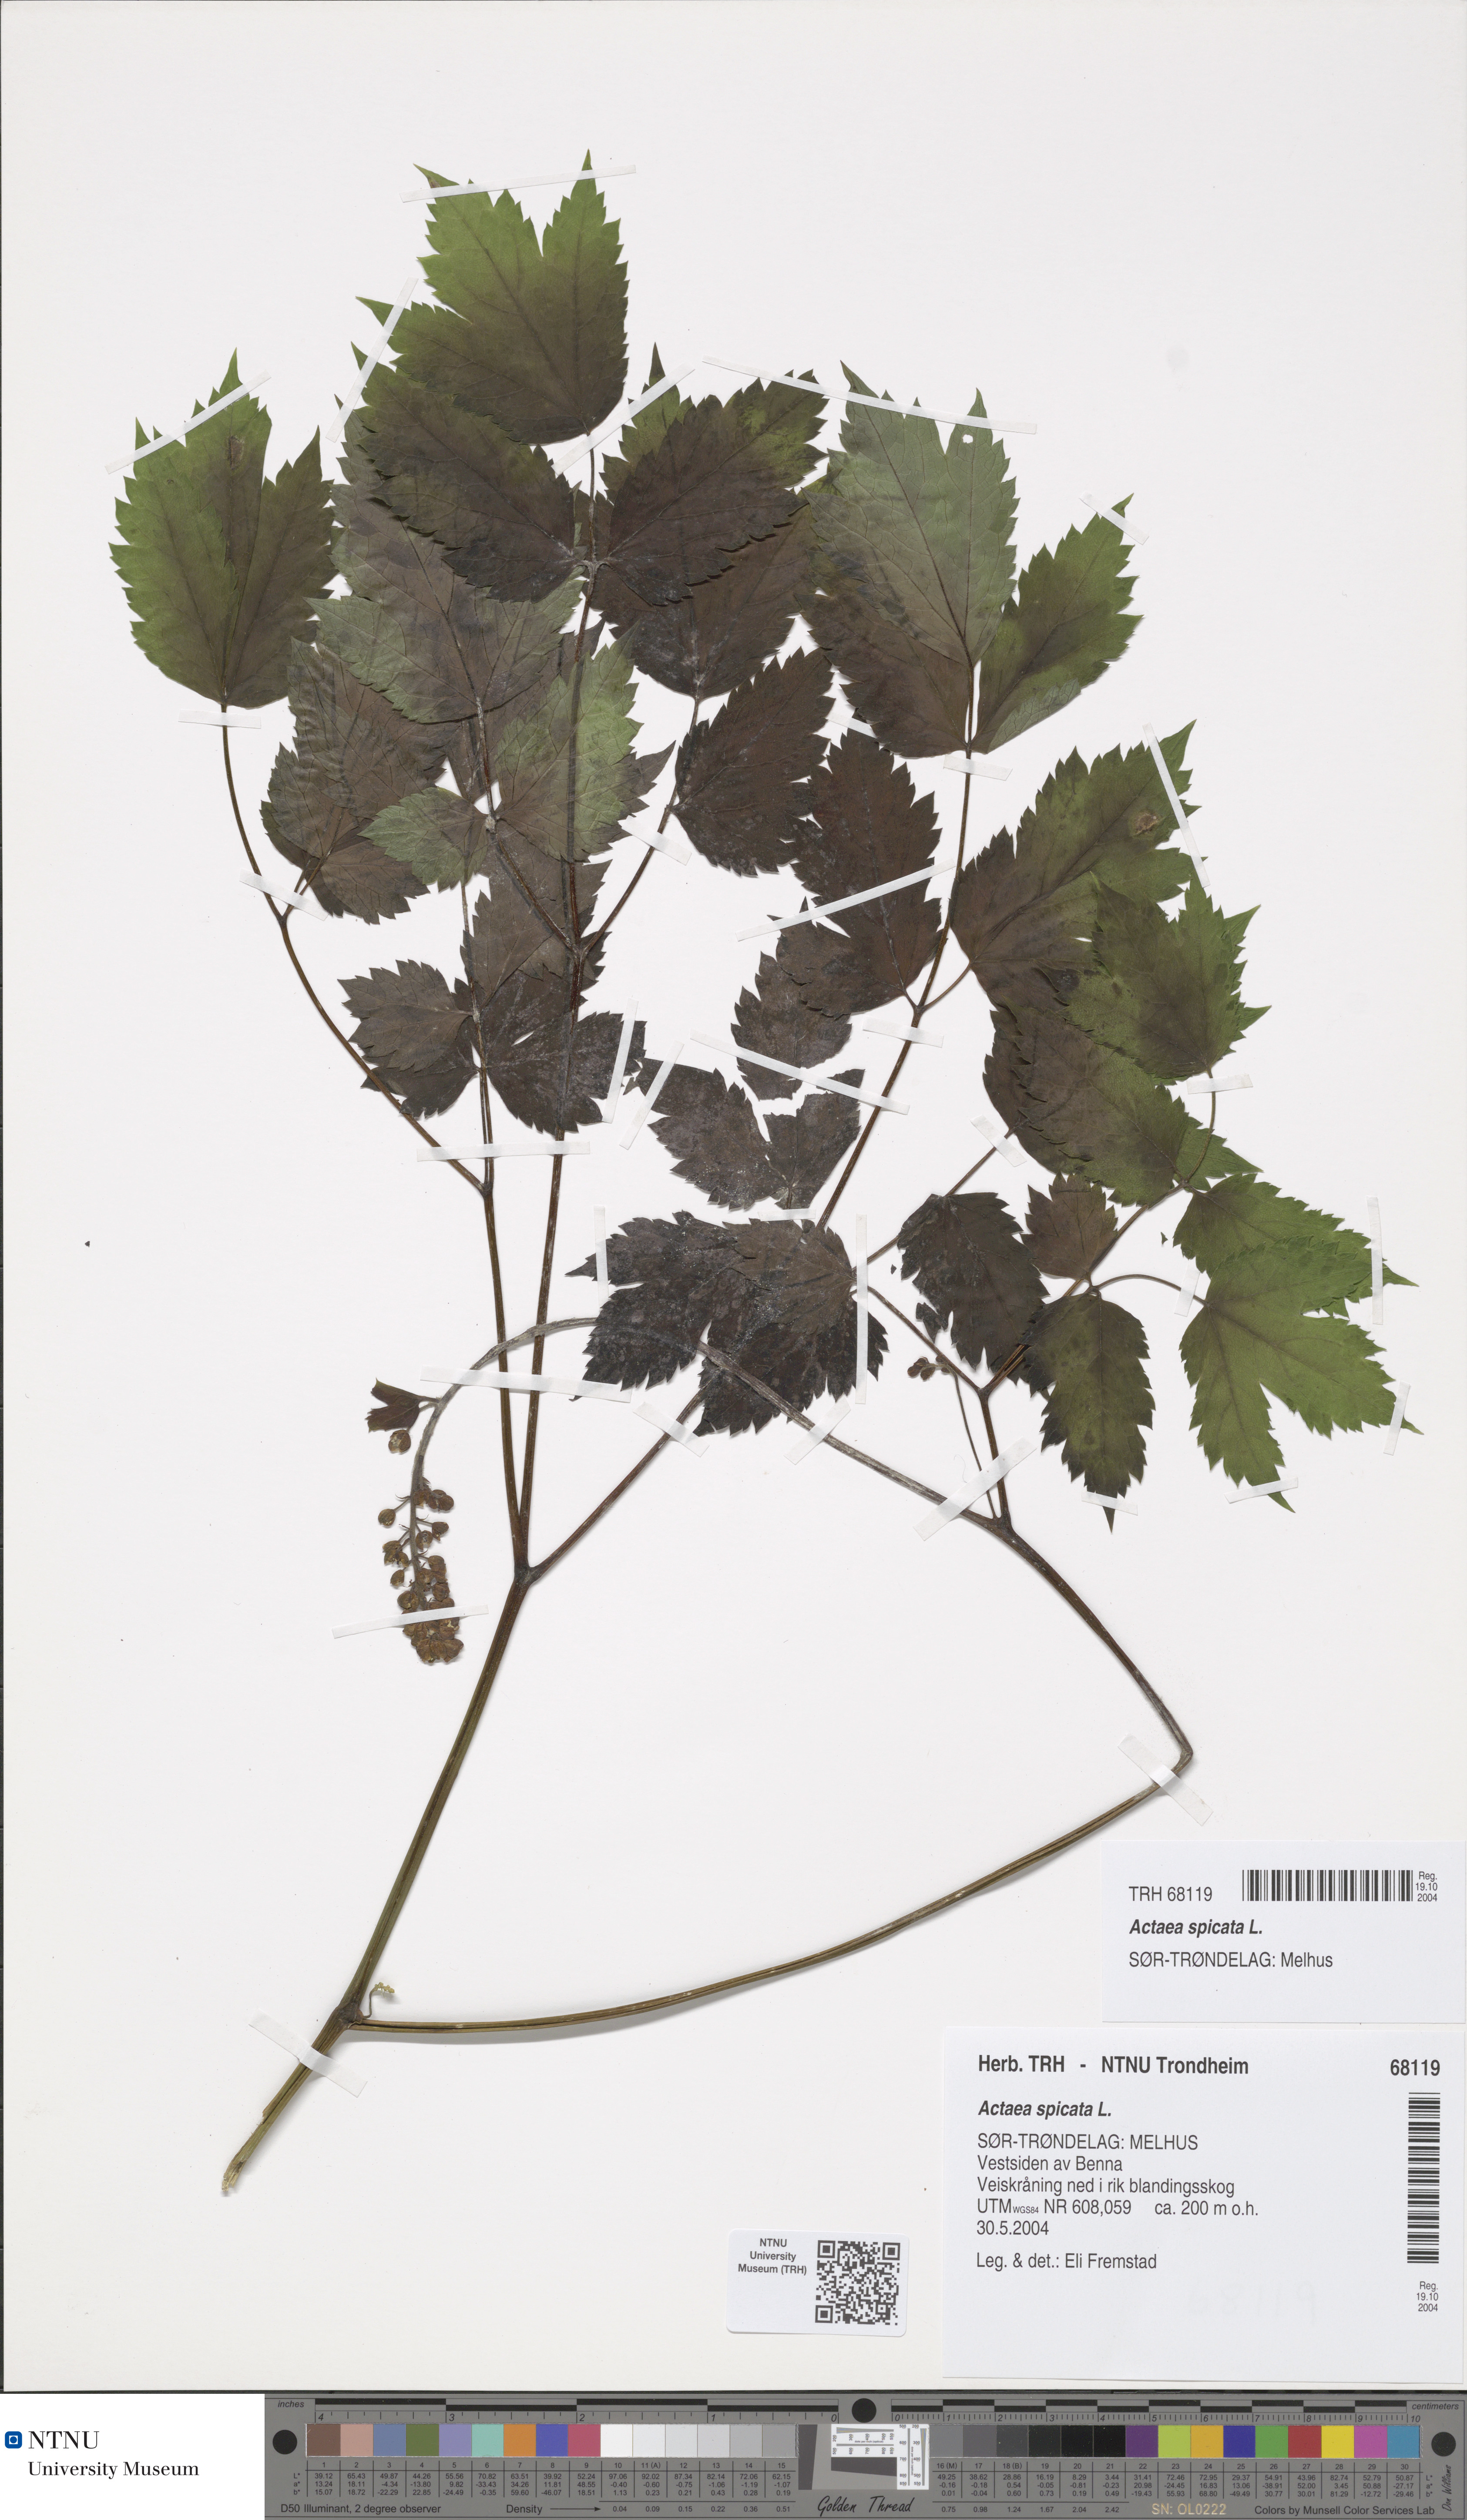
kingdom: Plantae
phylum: Tracheophyta
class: Magnoliopsida
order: Ranunculales
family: Ranunculaceae
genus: Actaea
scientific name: Actaea spicata
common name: Baneberry
